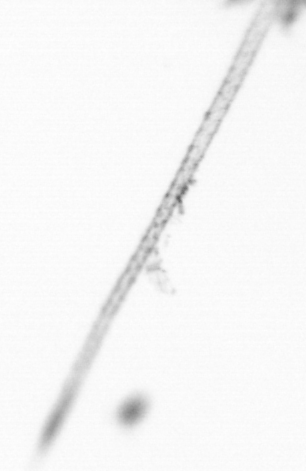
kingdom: Chromista
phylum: Ochrophyta
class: Bacillariophyceae
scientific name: Bacillariophyceae
